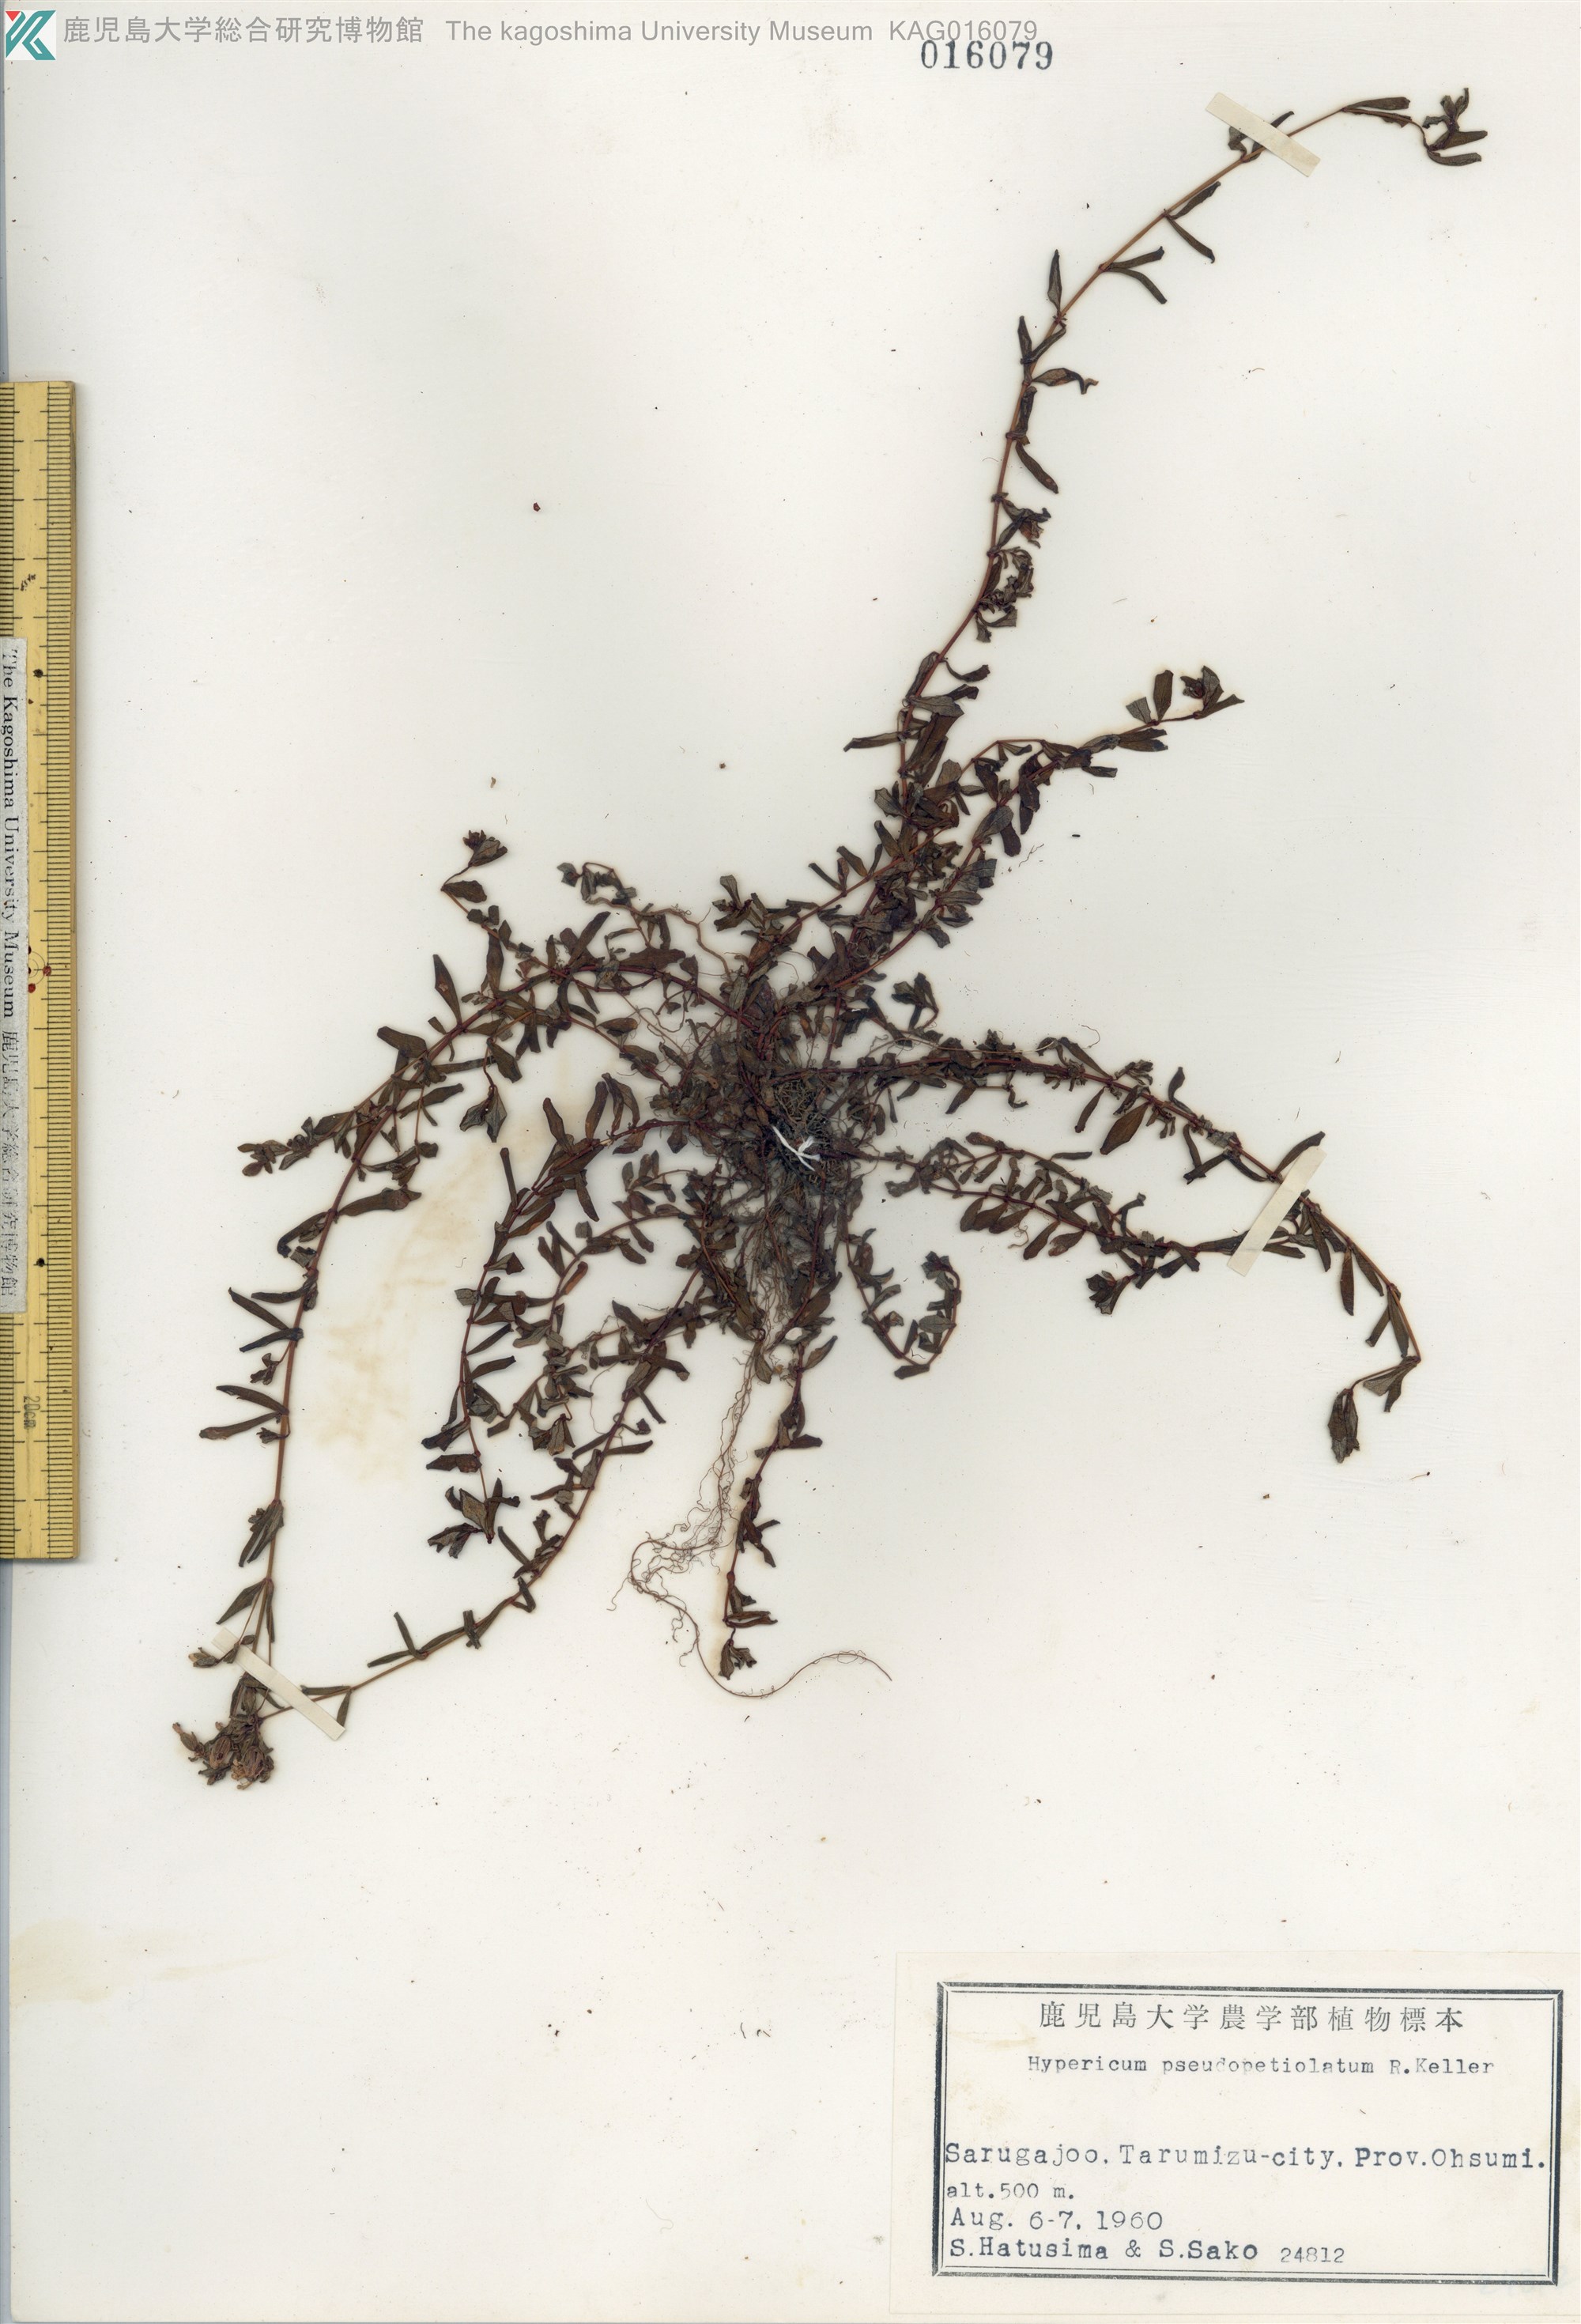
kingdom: Plantae
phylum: Tracheophyta
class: Magnoliopsida
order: Malpighiales
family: Hypericaceae
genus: Hypericum
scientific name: Hypericum pseudopetiolatum
